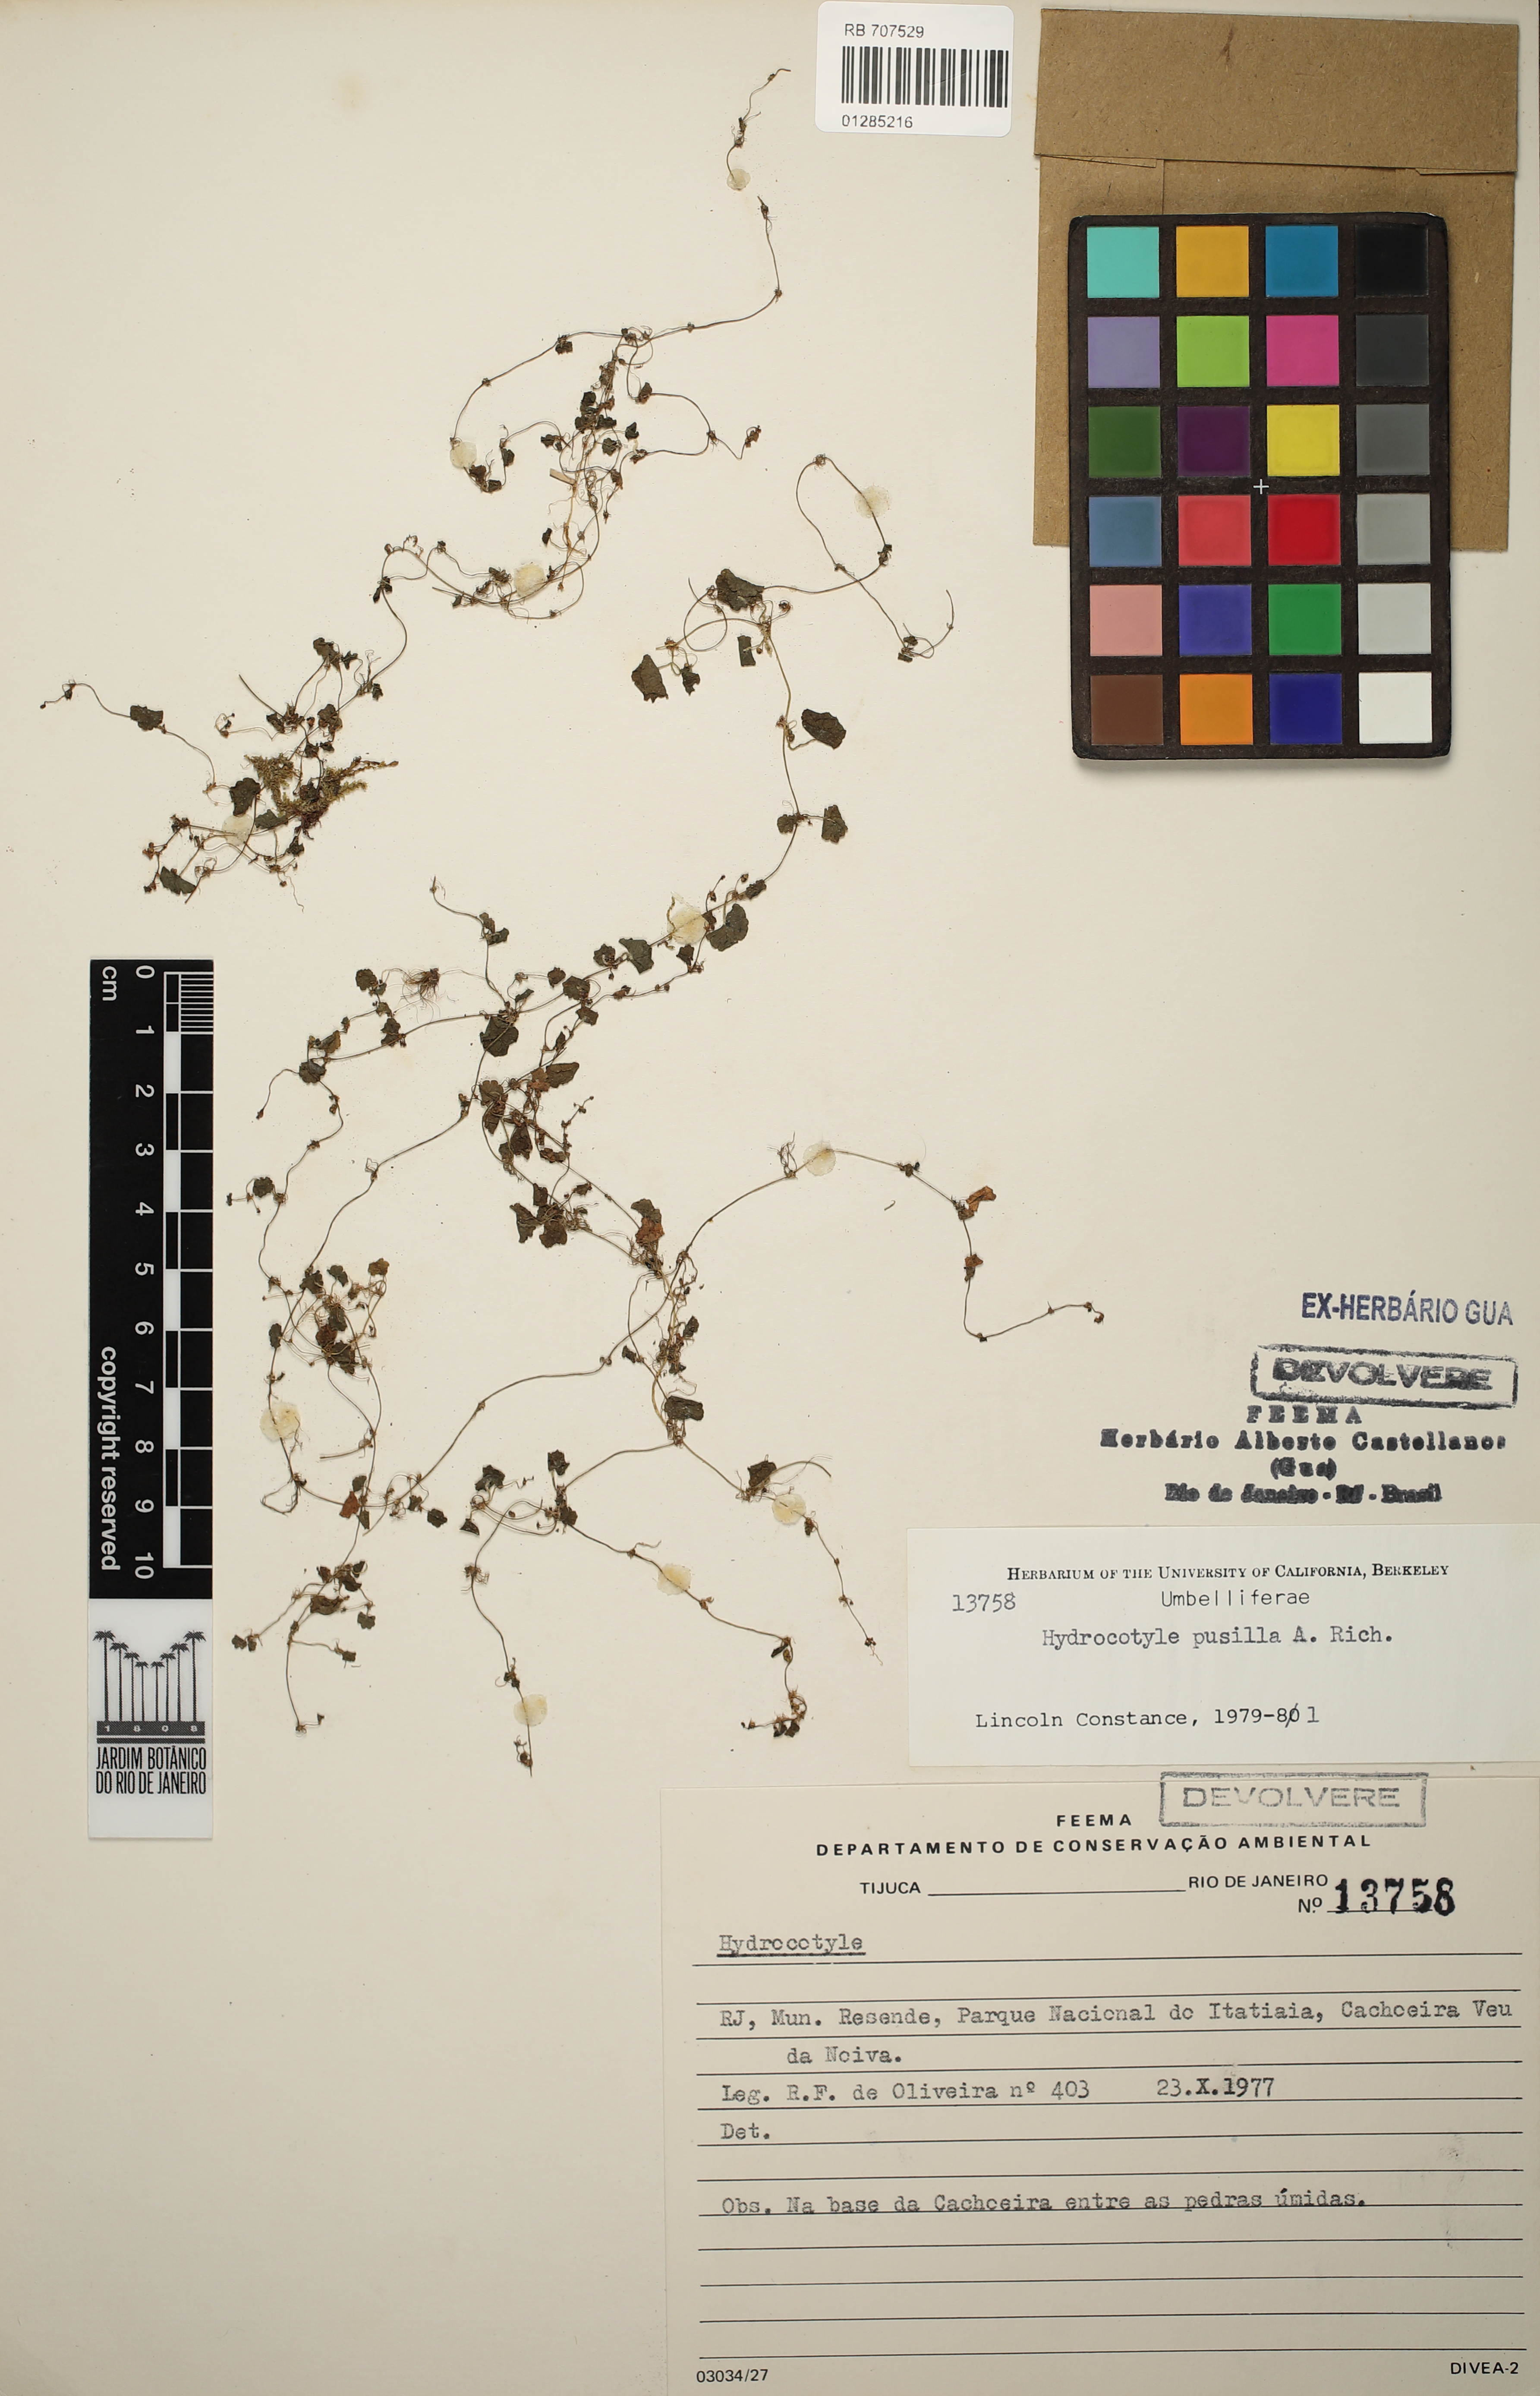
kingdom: Plantae
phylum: Tracheophyta
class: Magnoliopsida
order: Apiales
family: Araliaceae
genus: Hydrocotyle
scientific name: Hydrocotyle pusilla
